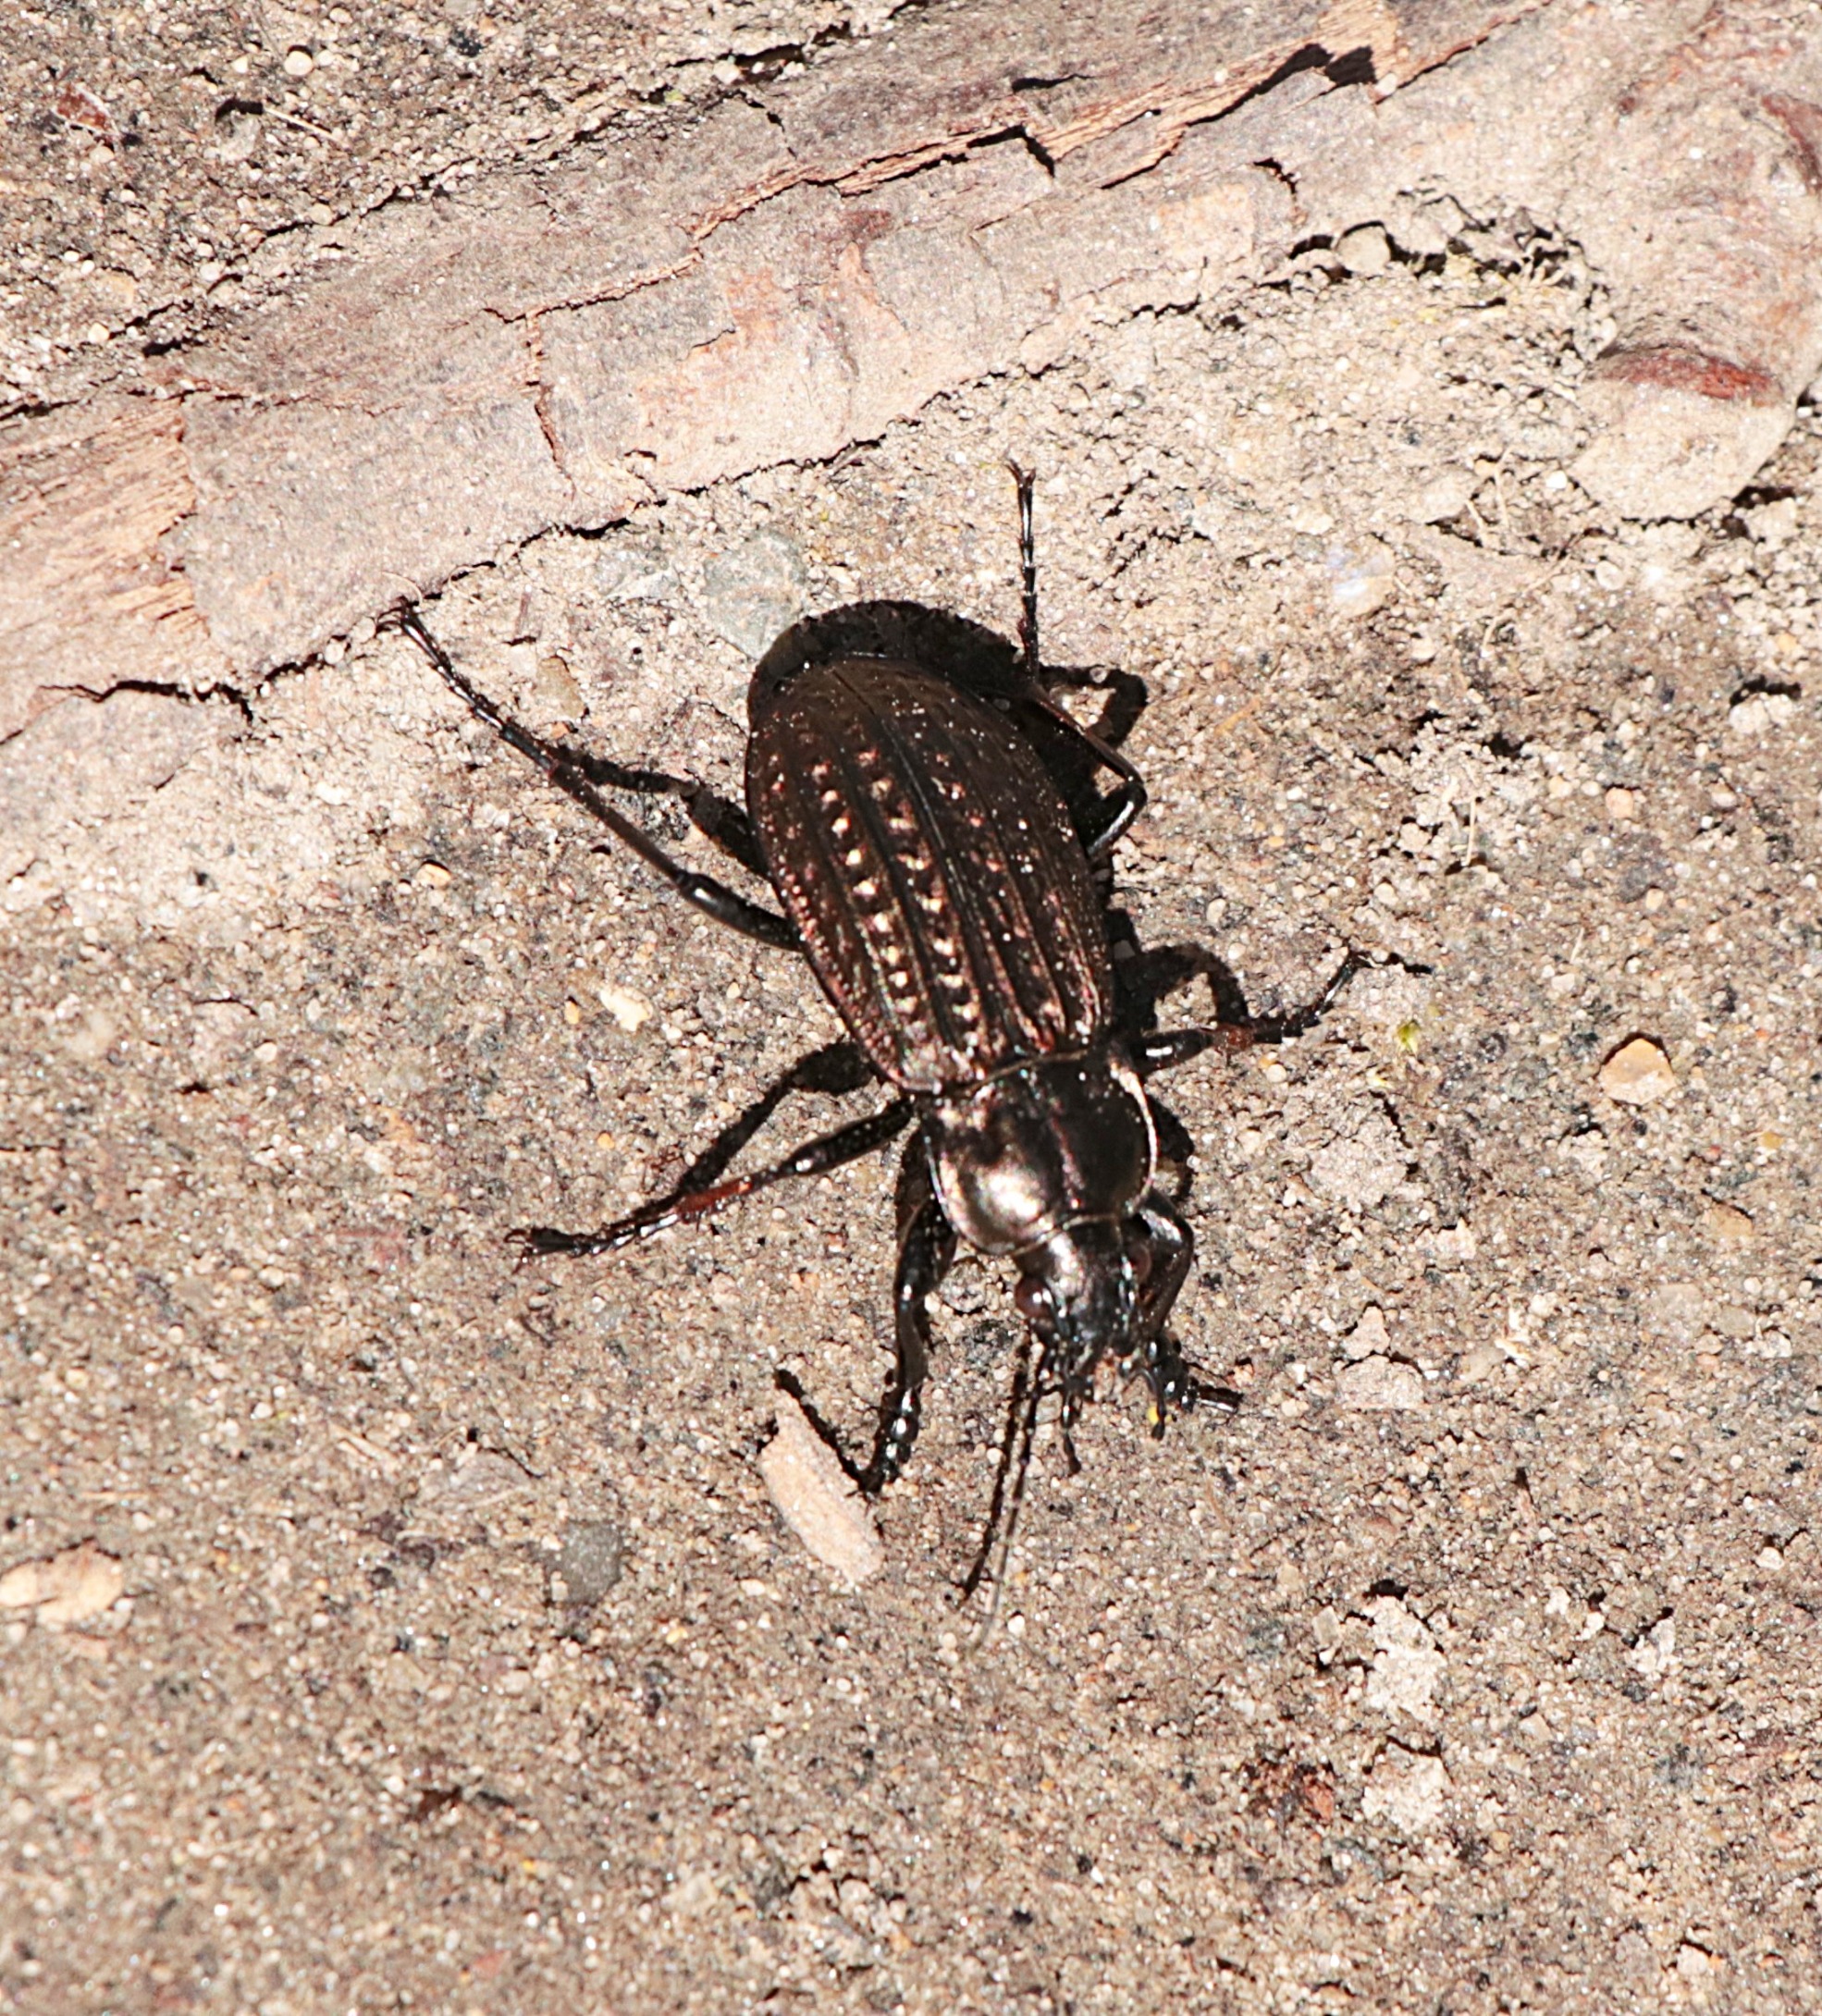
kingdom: Animalia
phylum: Arthropoda
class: Insecta
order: Coleoptera
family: Carabidae
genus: Carabus
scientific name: Carabus clatratus
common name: Dyndløber
